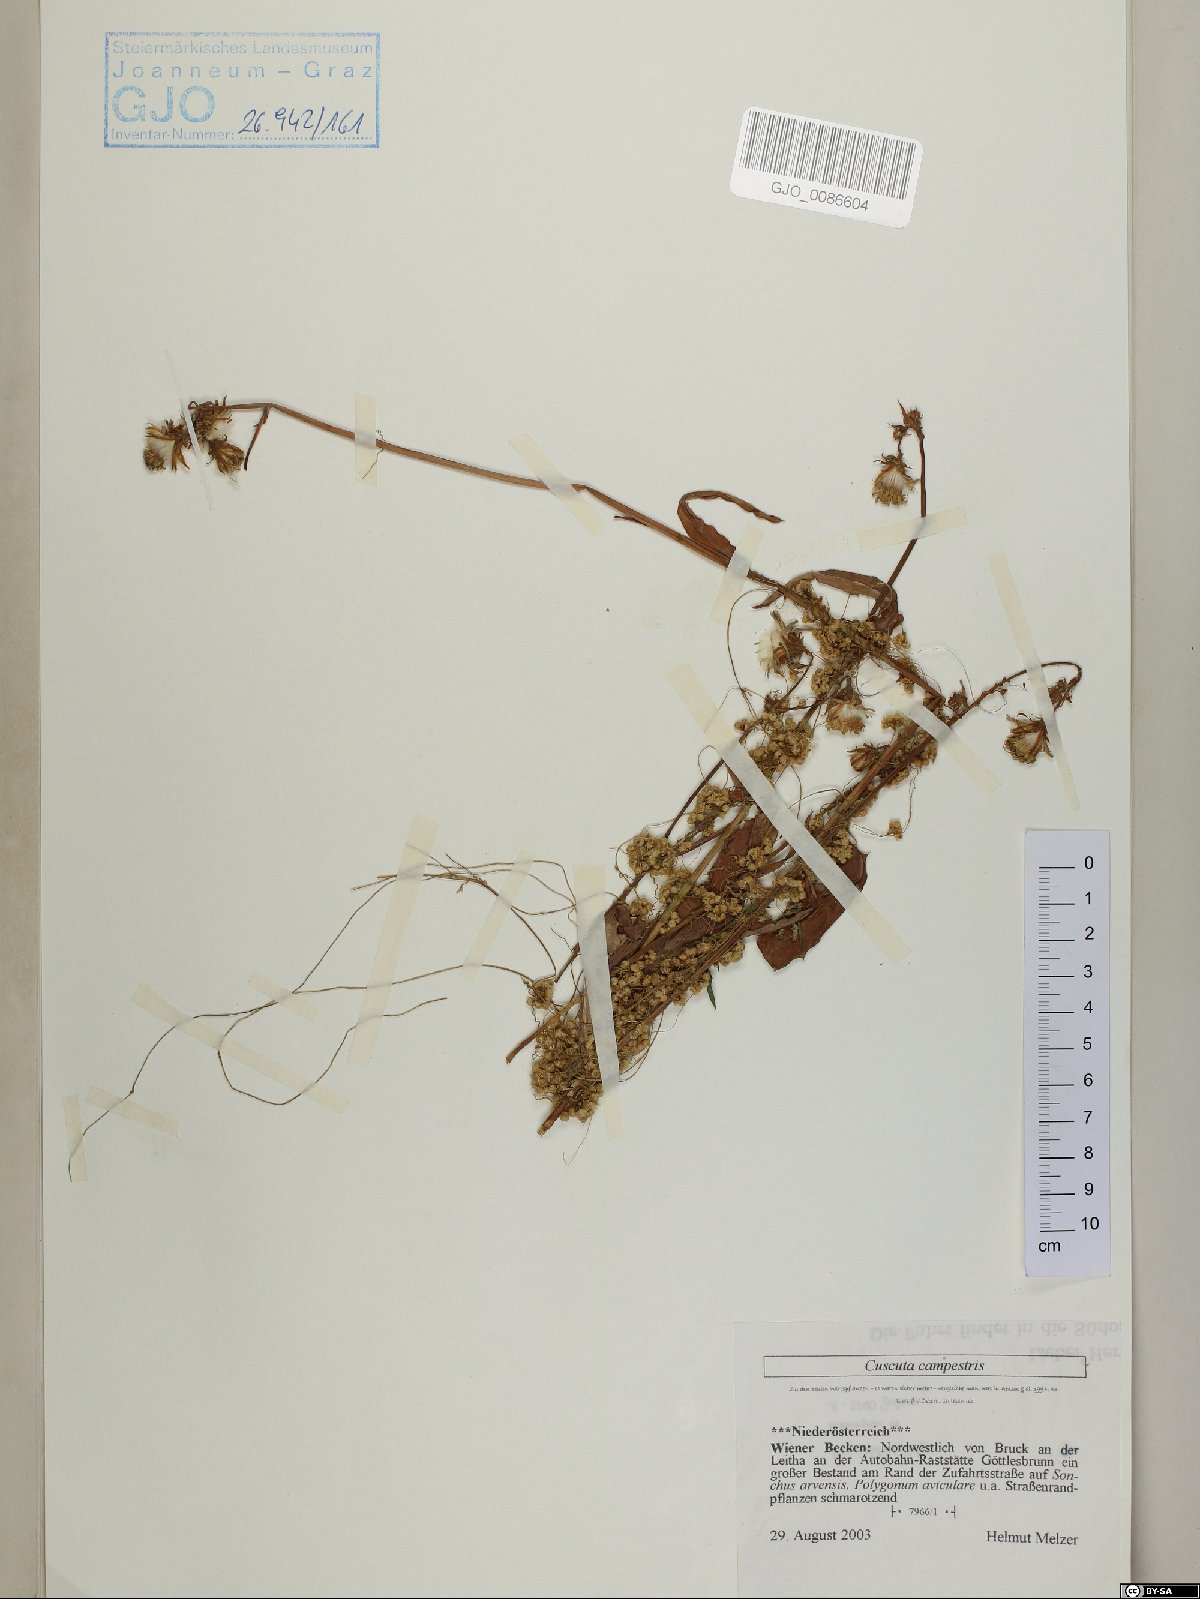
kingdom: Plantae
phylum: Tracheophyta
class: Magnoliopsida
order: Solanales
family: Convolvulaceae
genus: Cuscuta
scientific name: Cuscuta campestris
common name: Yellow dodder
